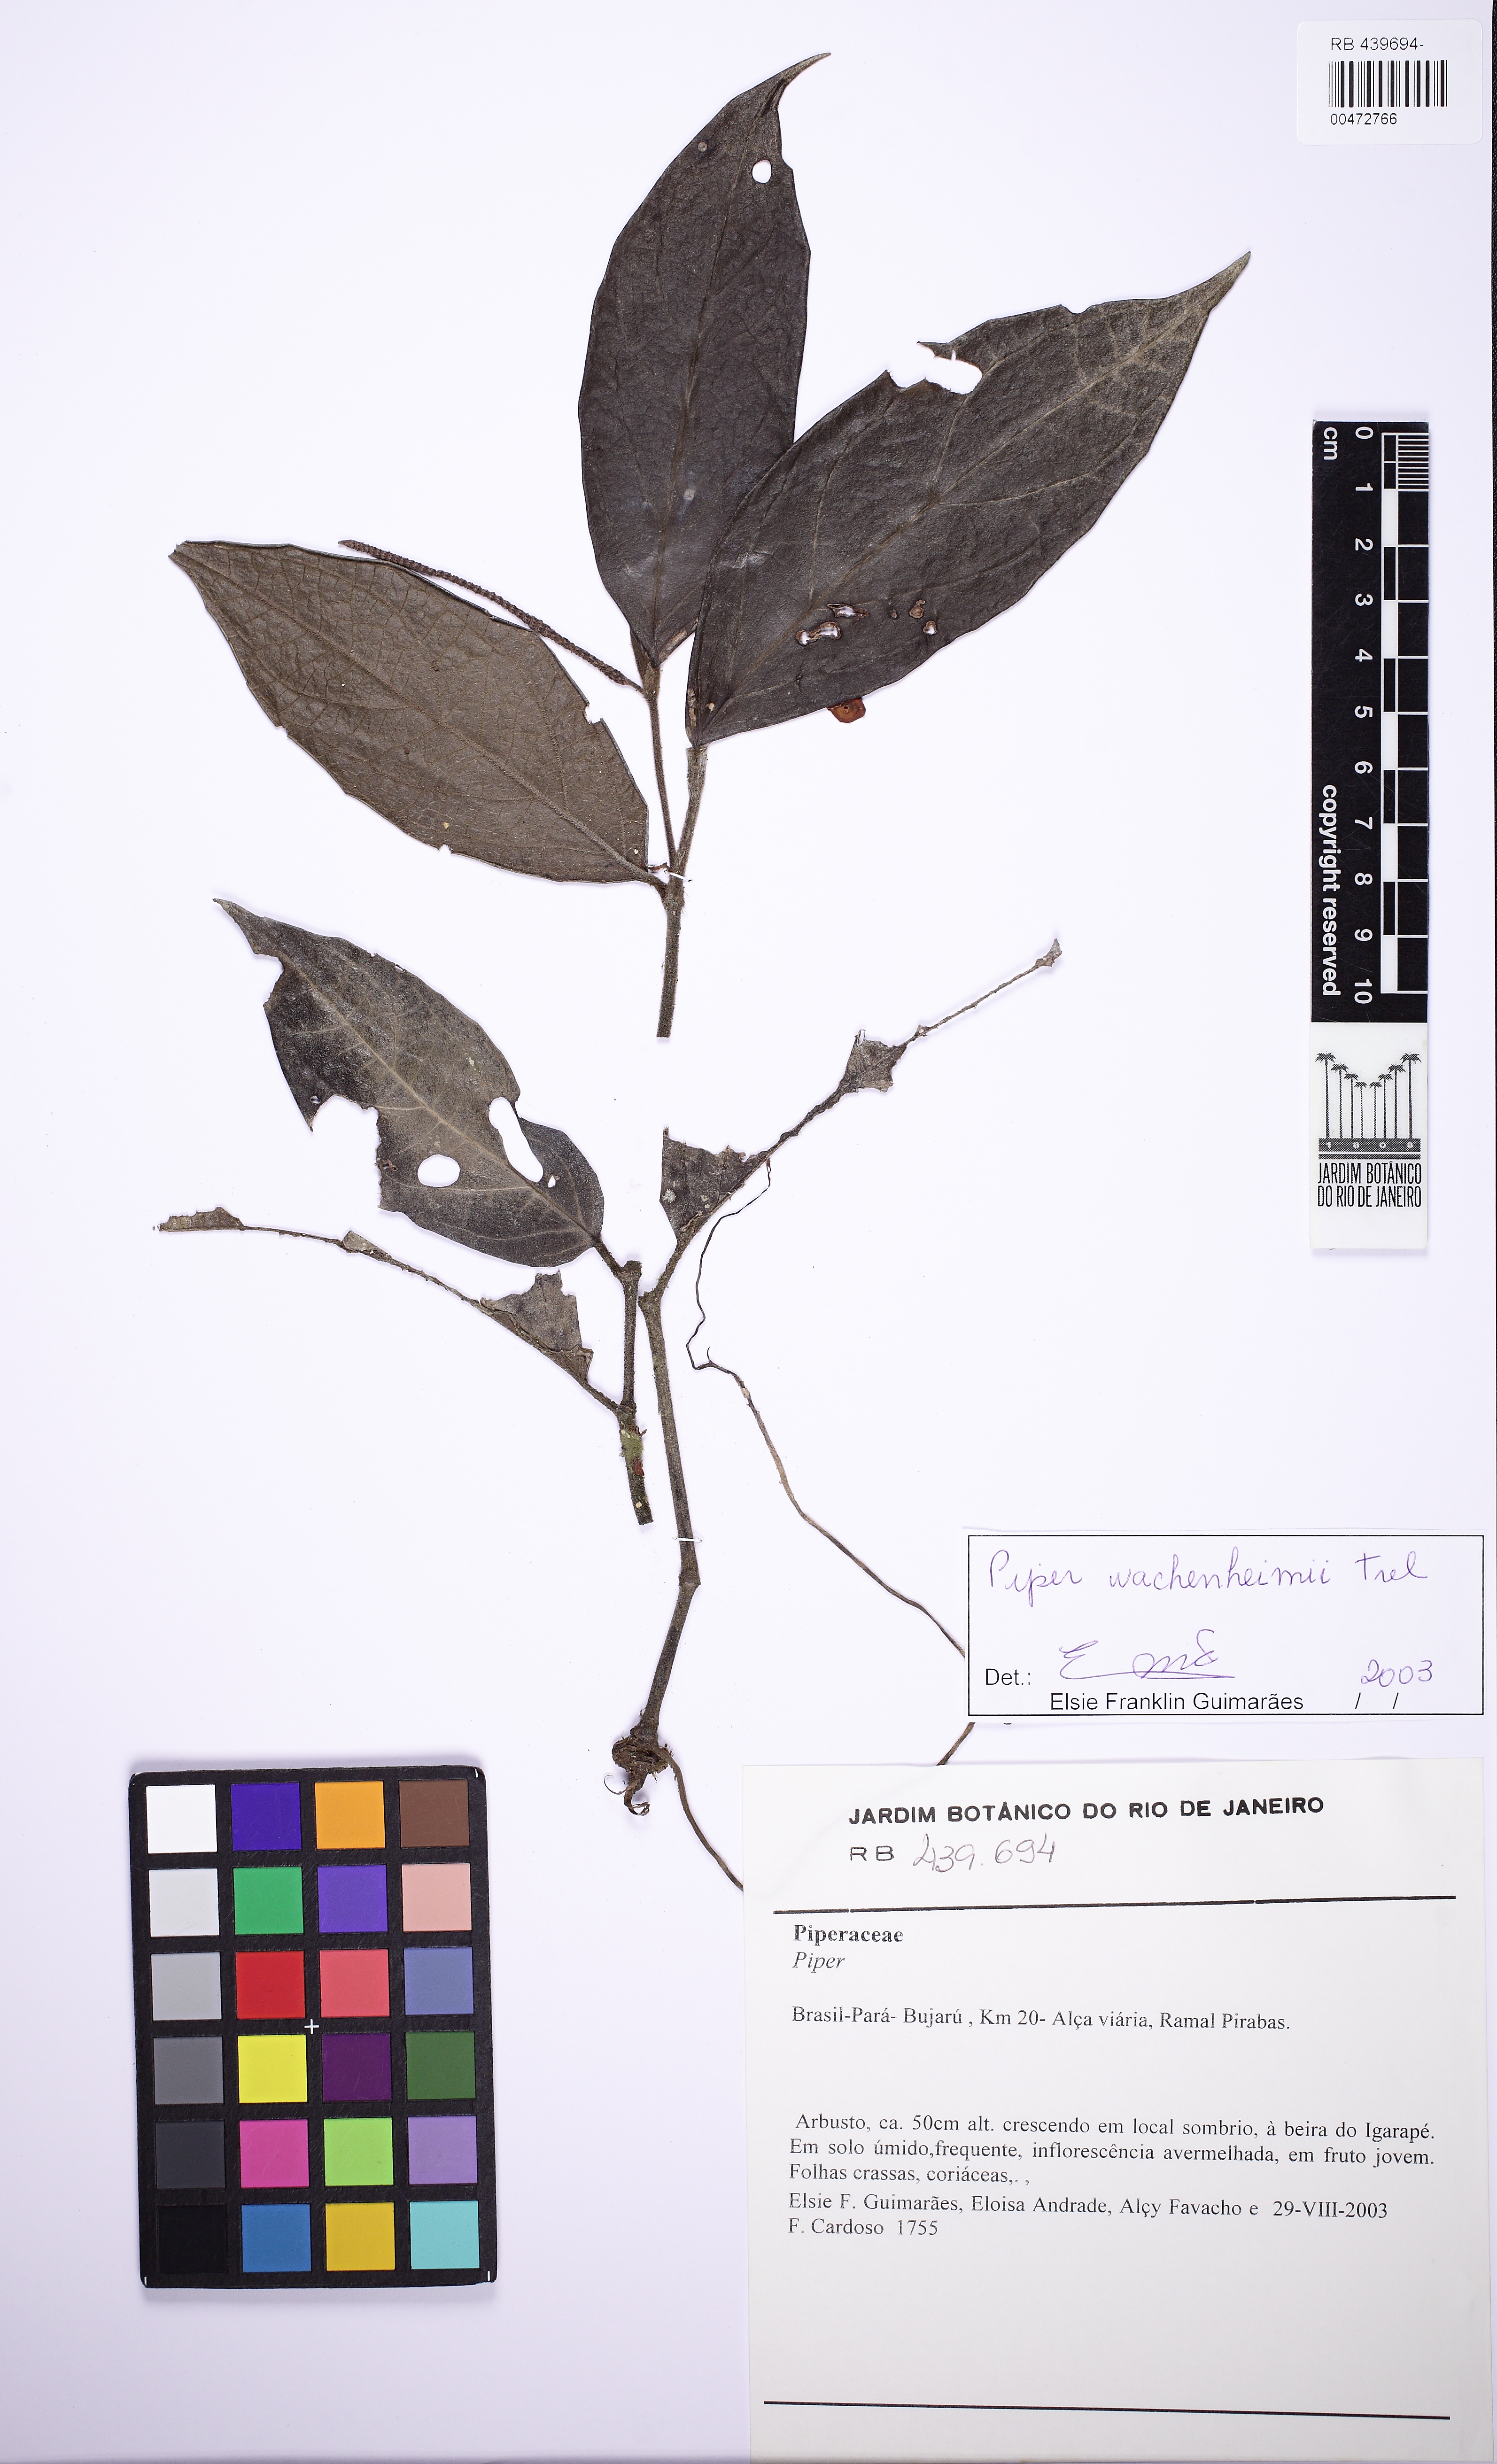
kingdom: Plantae
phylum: Tracheophyta
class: Magnoliopsida
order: Piperales
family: Piperaceae
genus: Piper
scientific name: Piper wachenheimii
